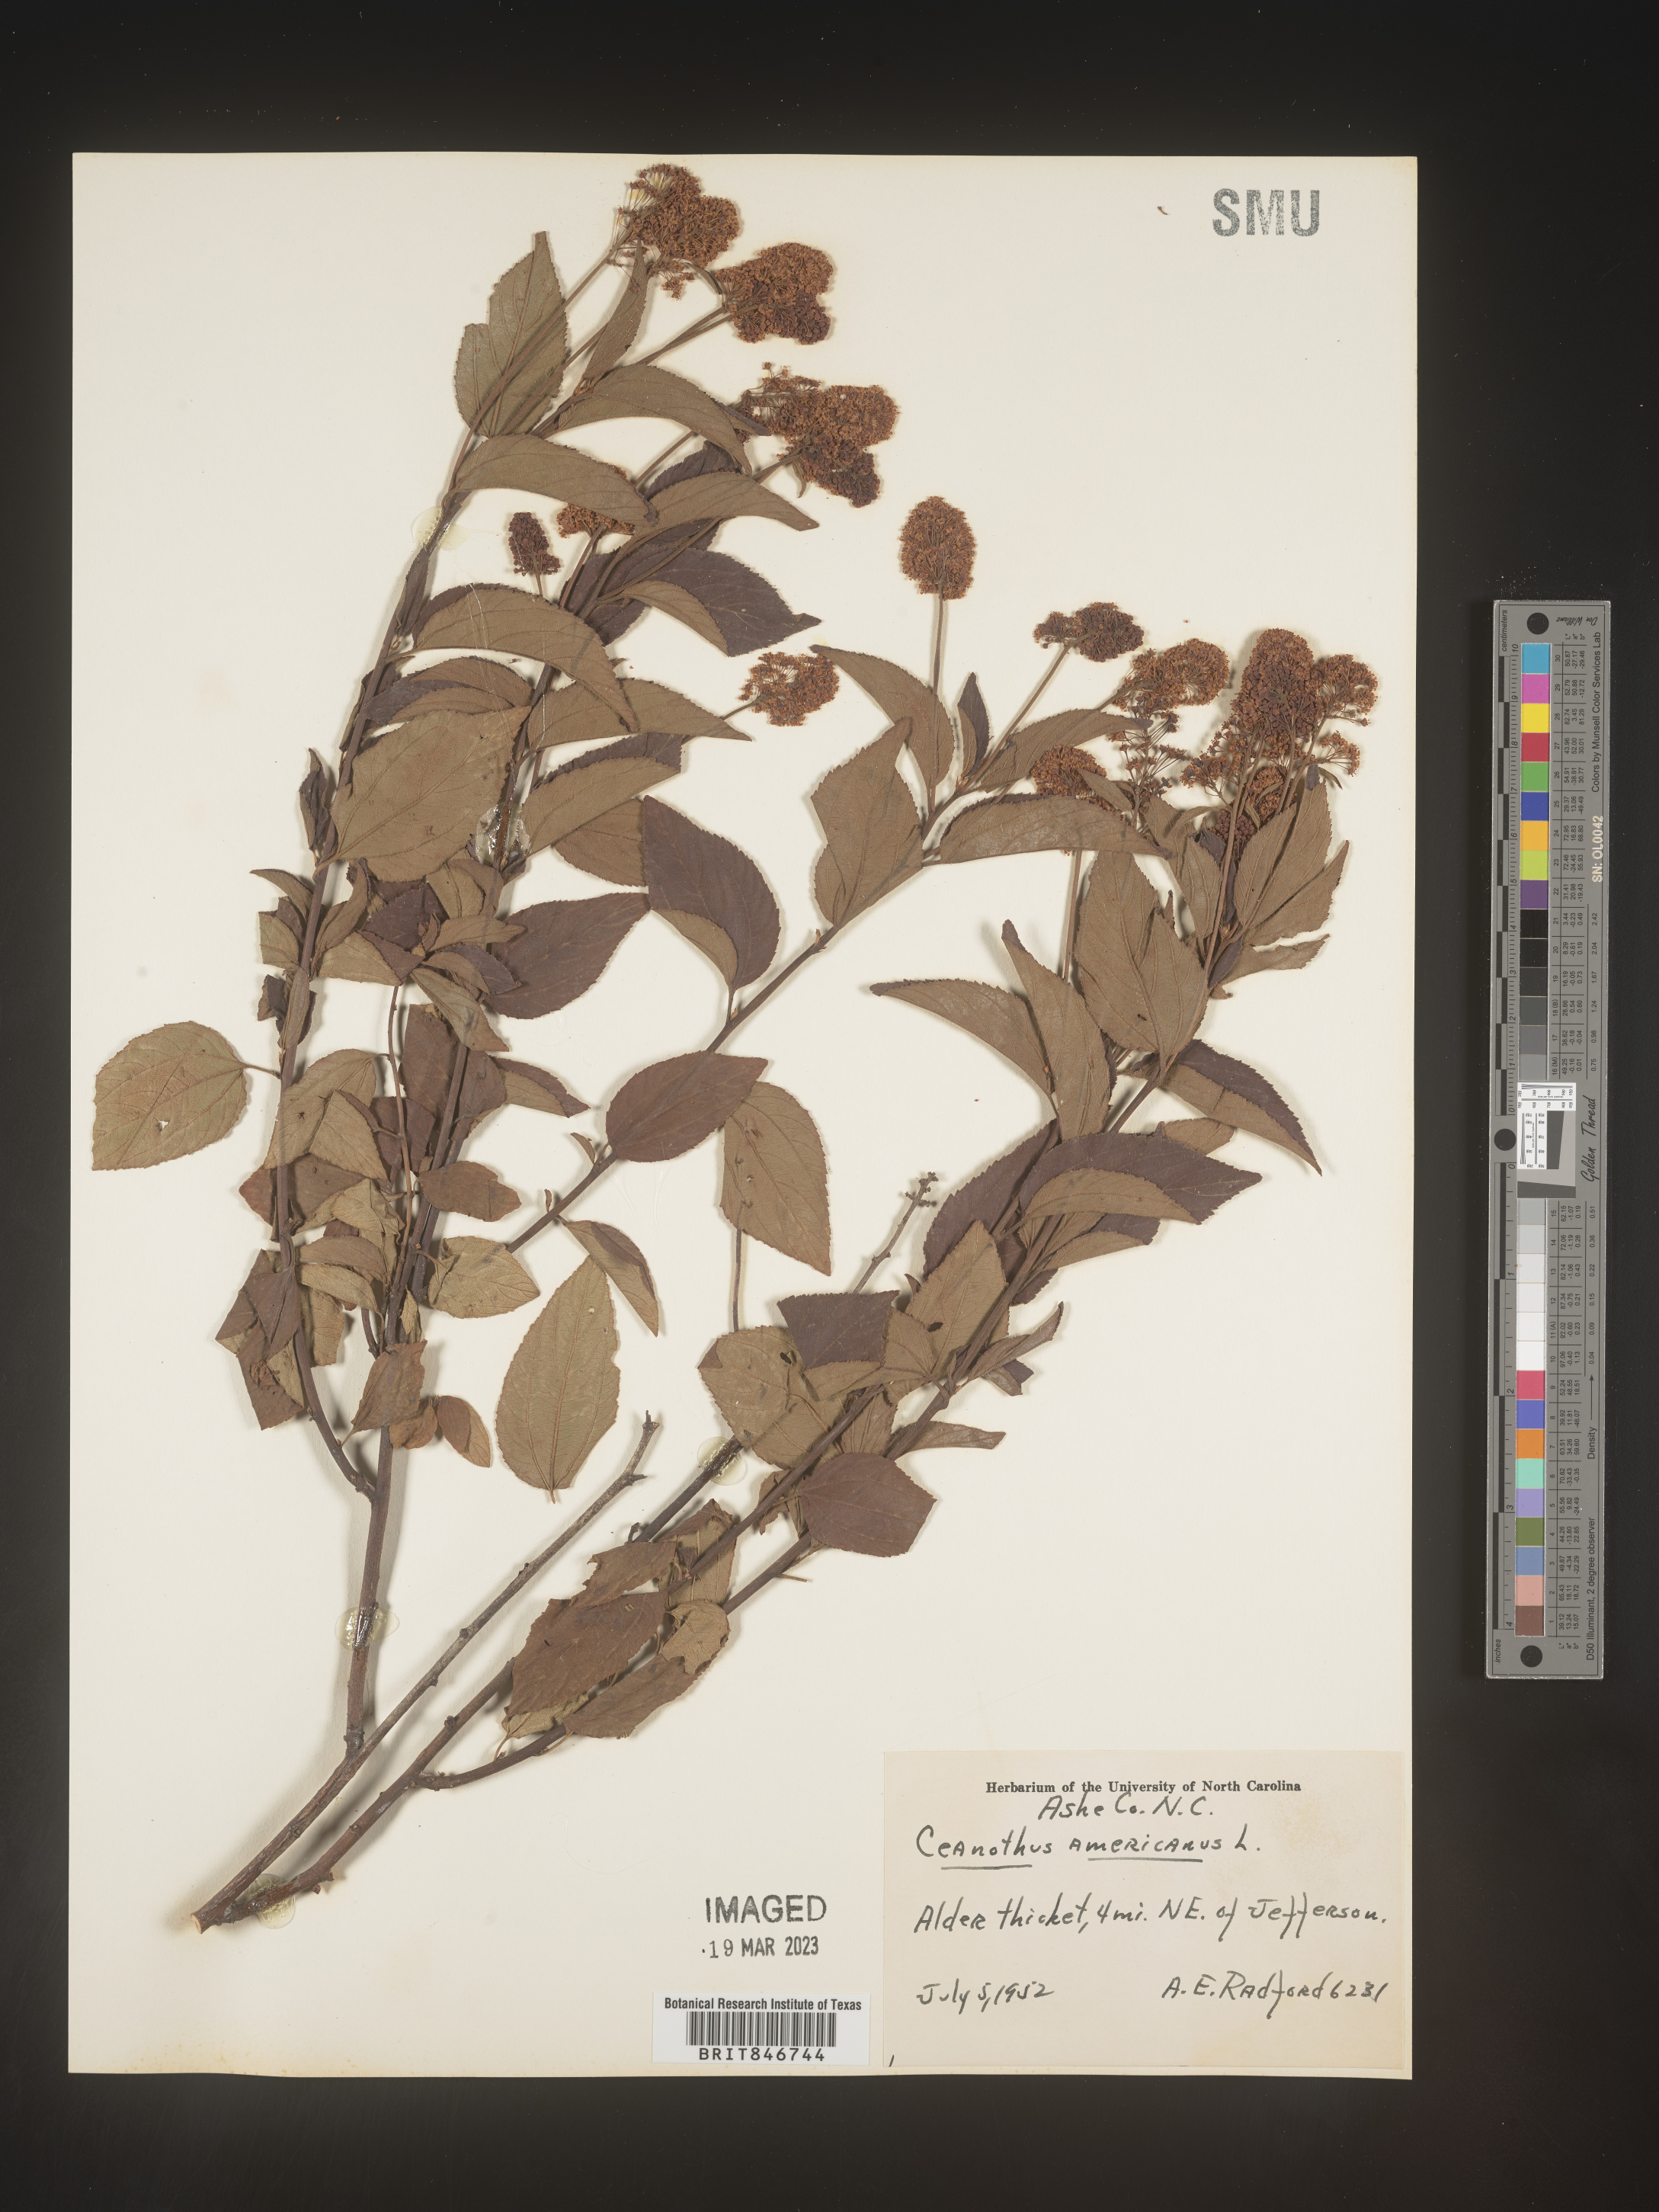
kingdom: Plantae
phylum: Tracheophyta
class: Magnoliopsida
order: Rosales
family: Rhamnaceae
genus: Ceanothus
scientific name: Ceanothus americanus
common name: Redroot
